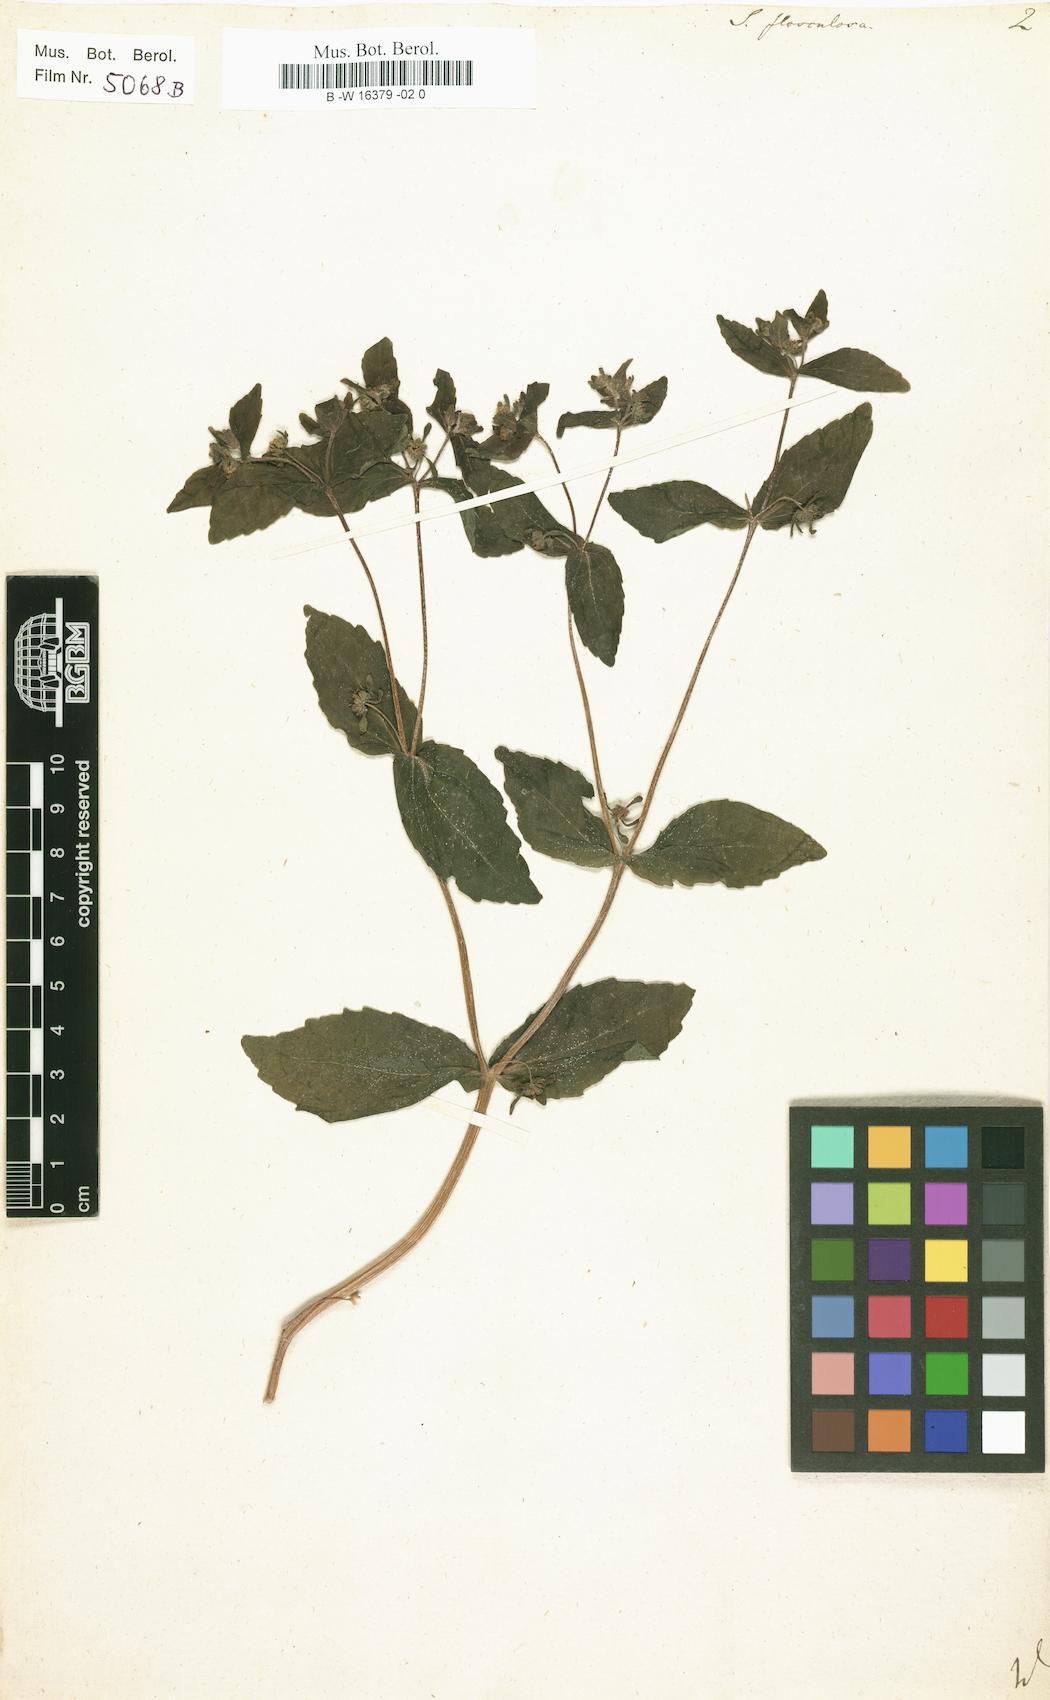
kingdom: Plantae
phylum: Tracheophyta
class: Magnoliopsida
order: Asterales
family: Asteraceae
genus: Siegesbeckia
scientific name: Siegesbeckia
